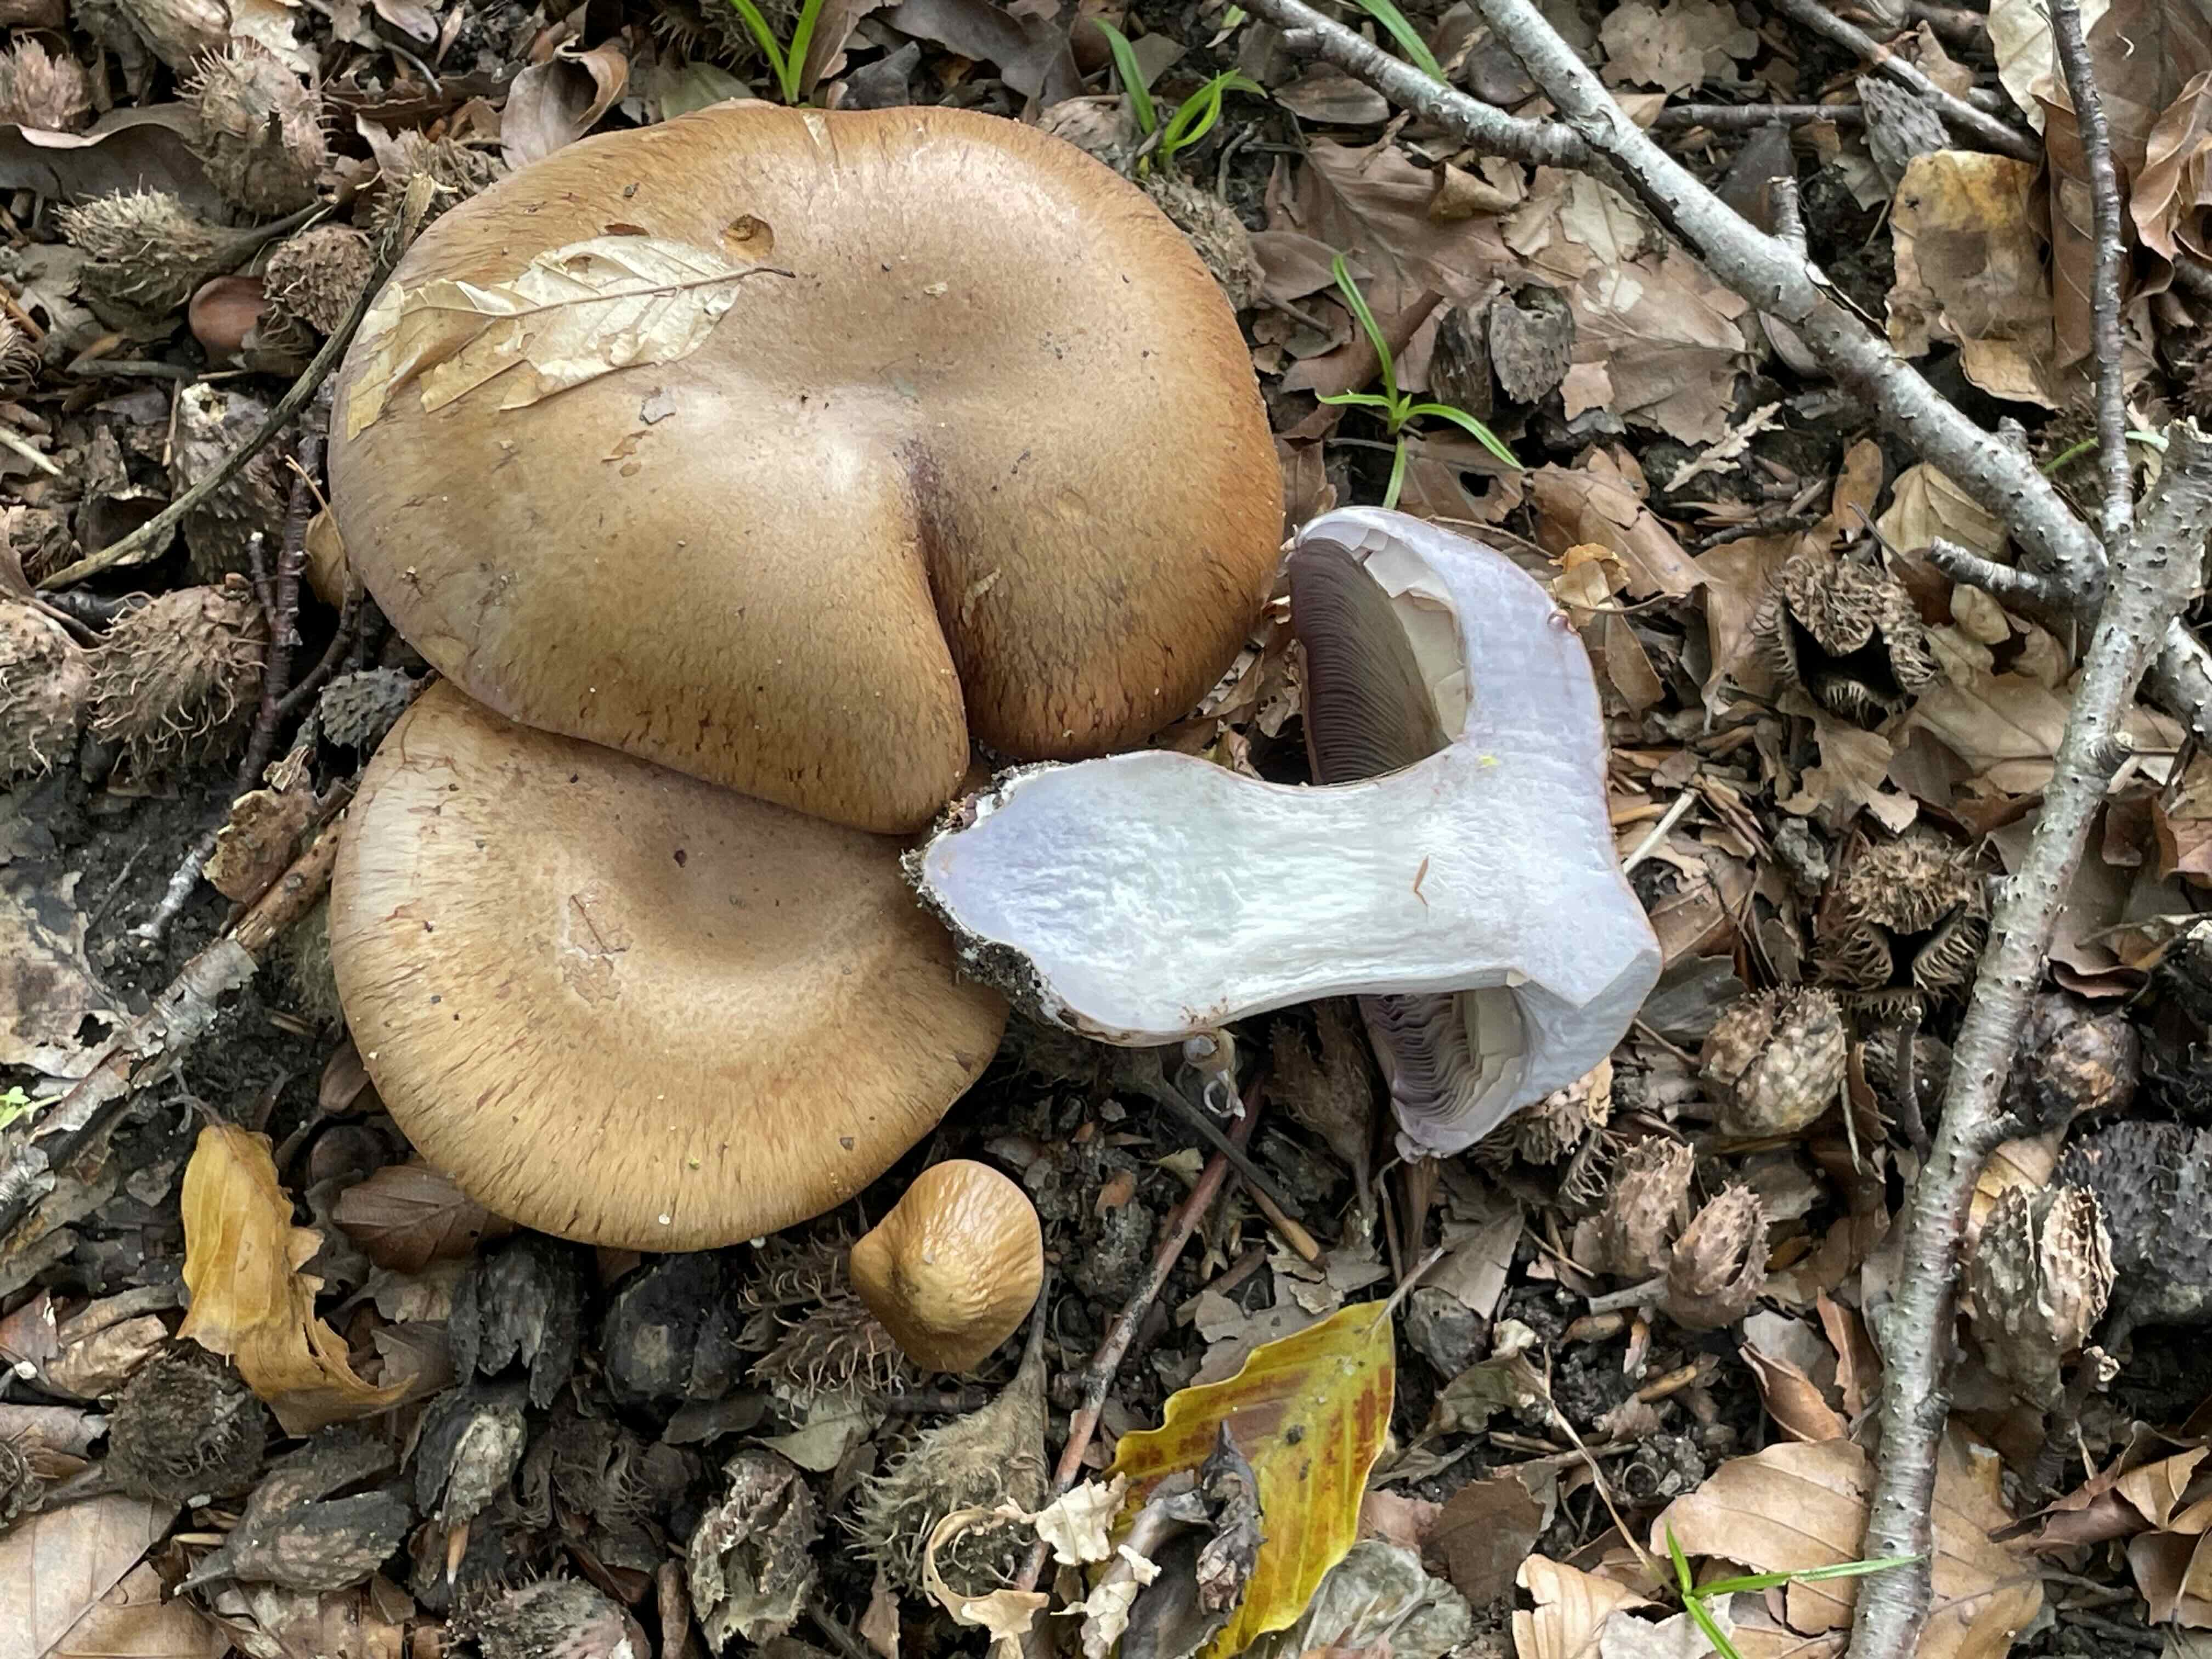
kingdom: Fungi
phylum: Basidiomycota
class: Agaricomycetes
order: Agaricales
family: Cortinariaceae
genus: Cortinarius
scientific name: Cortinarius anserinus
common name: bøge-slørhat
